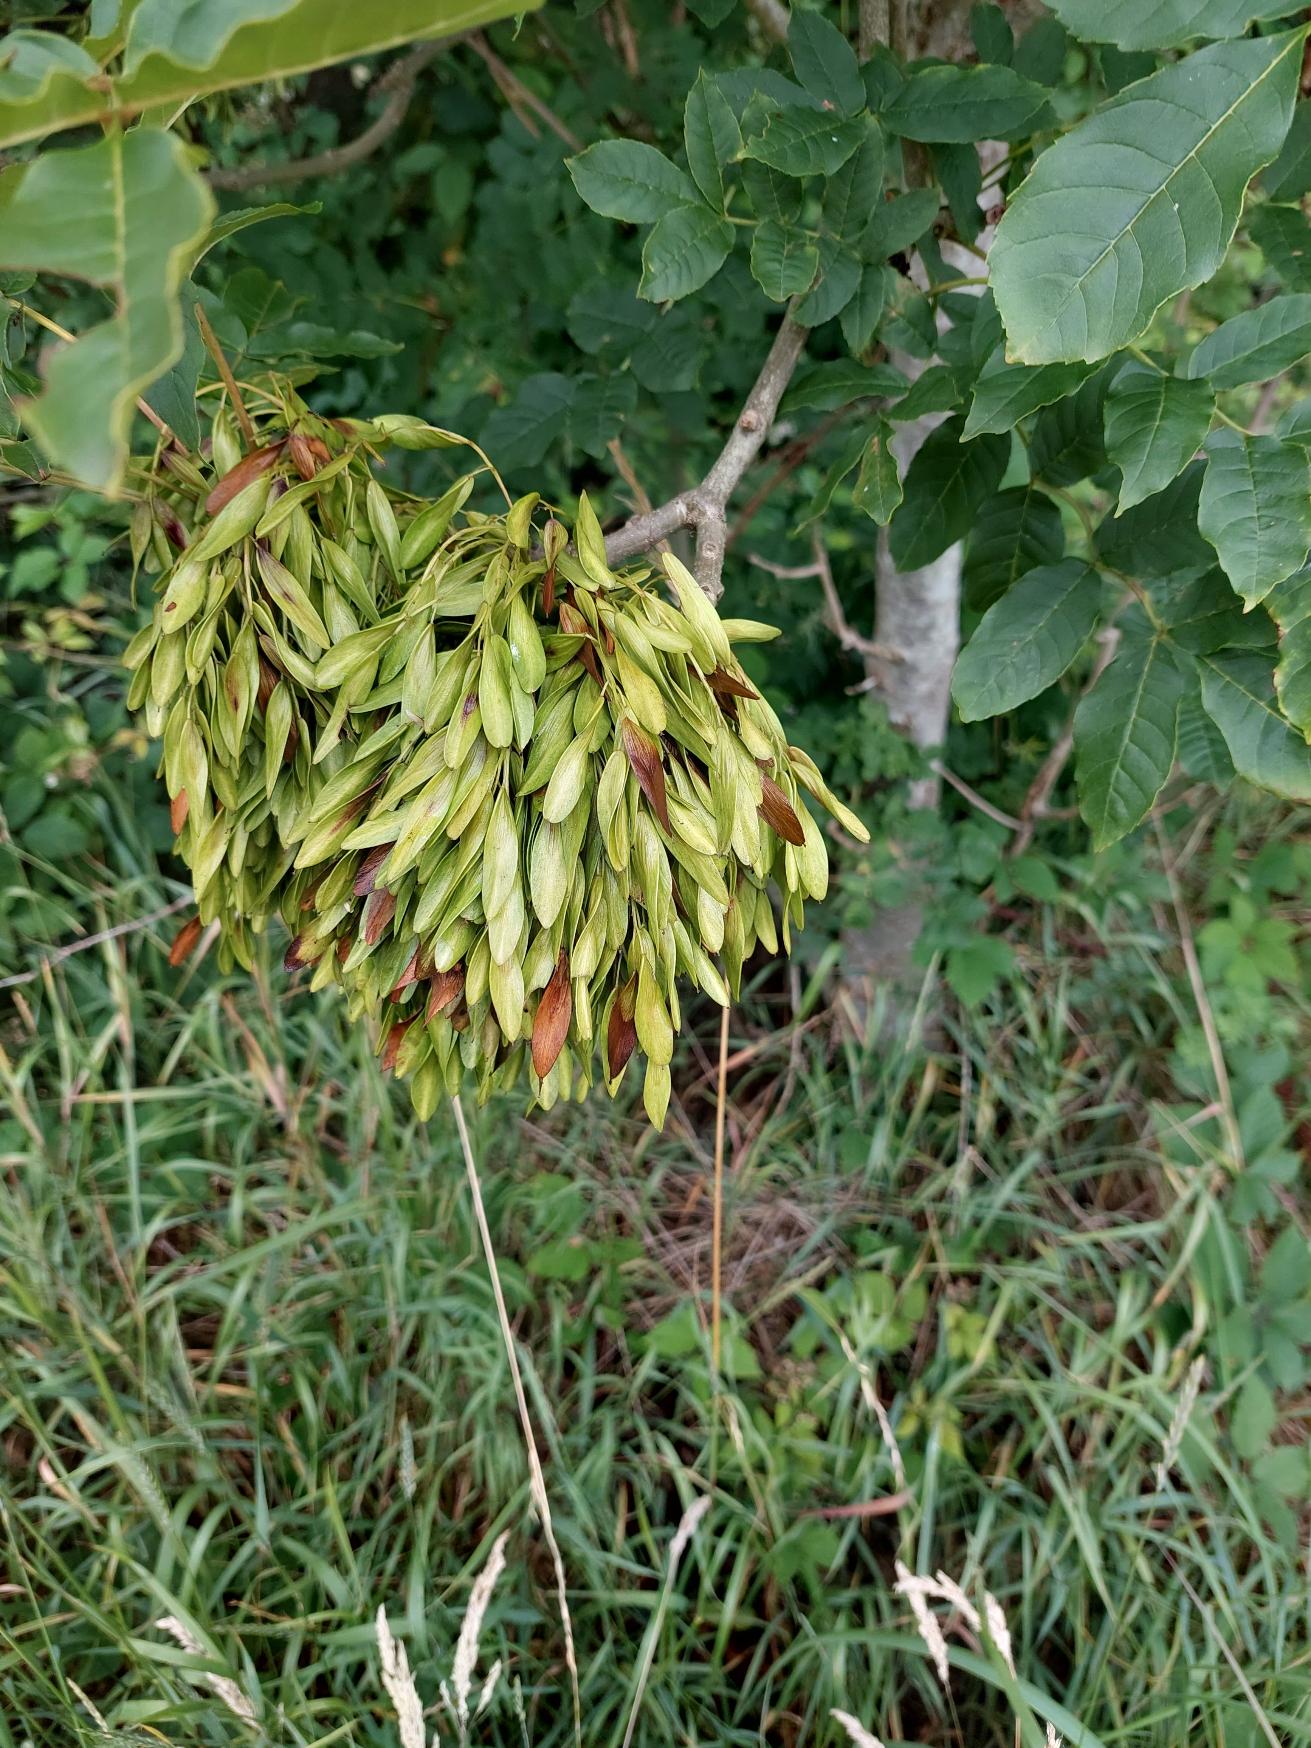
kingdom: Plantae
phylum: Tracheophyta
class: Magnoliopsida
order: Lamiales
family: Oleaceae
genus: Fraxinus
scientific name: Fraxinus excelsior
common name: Ask
